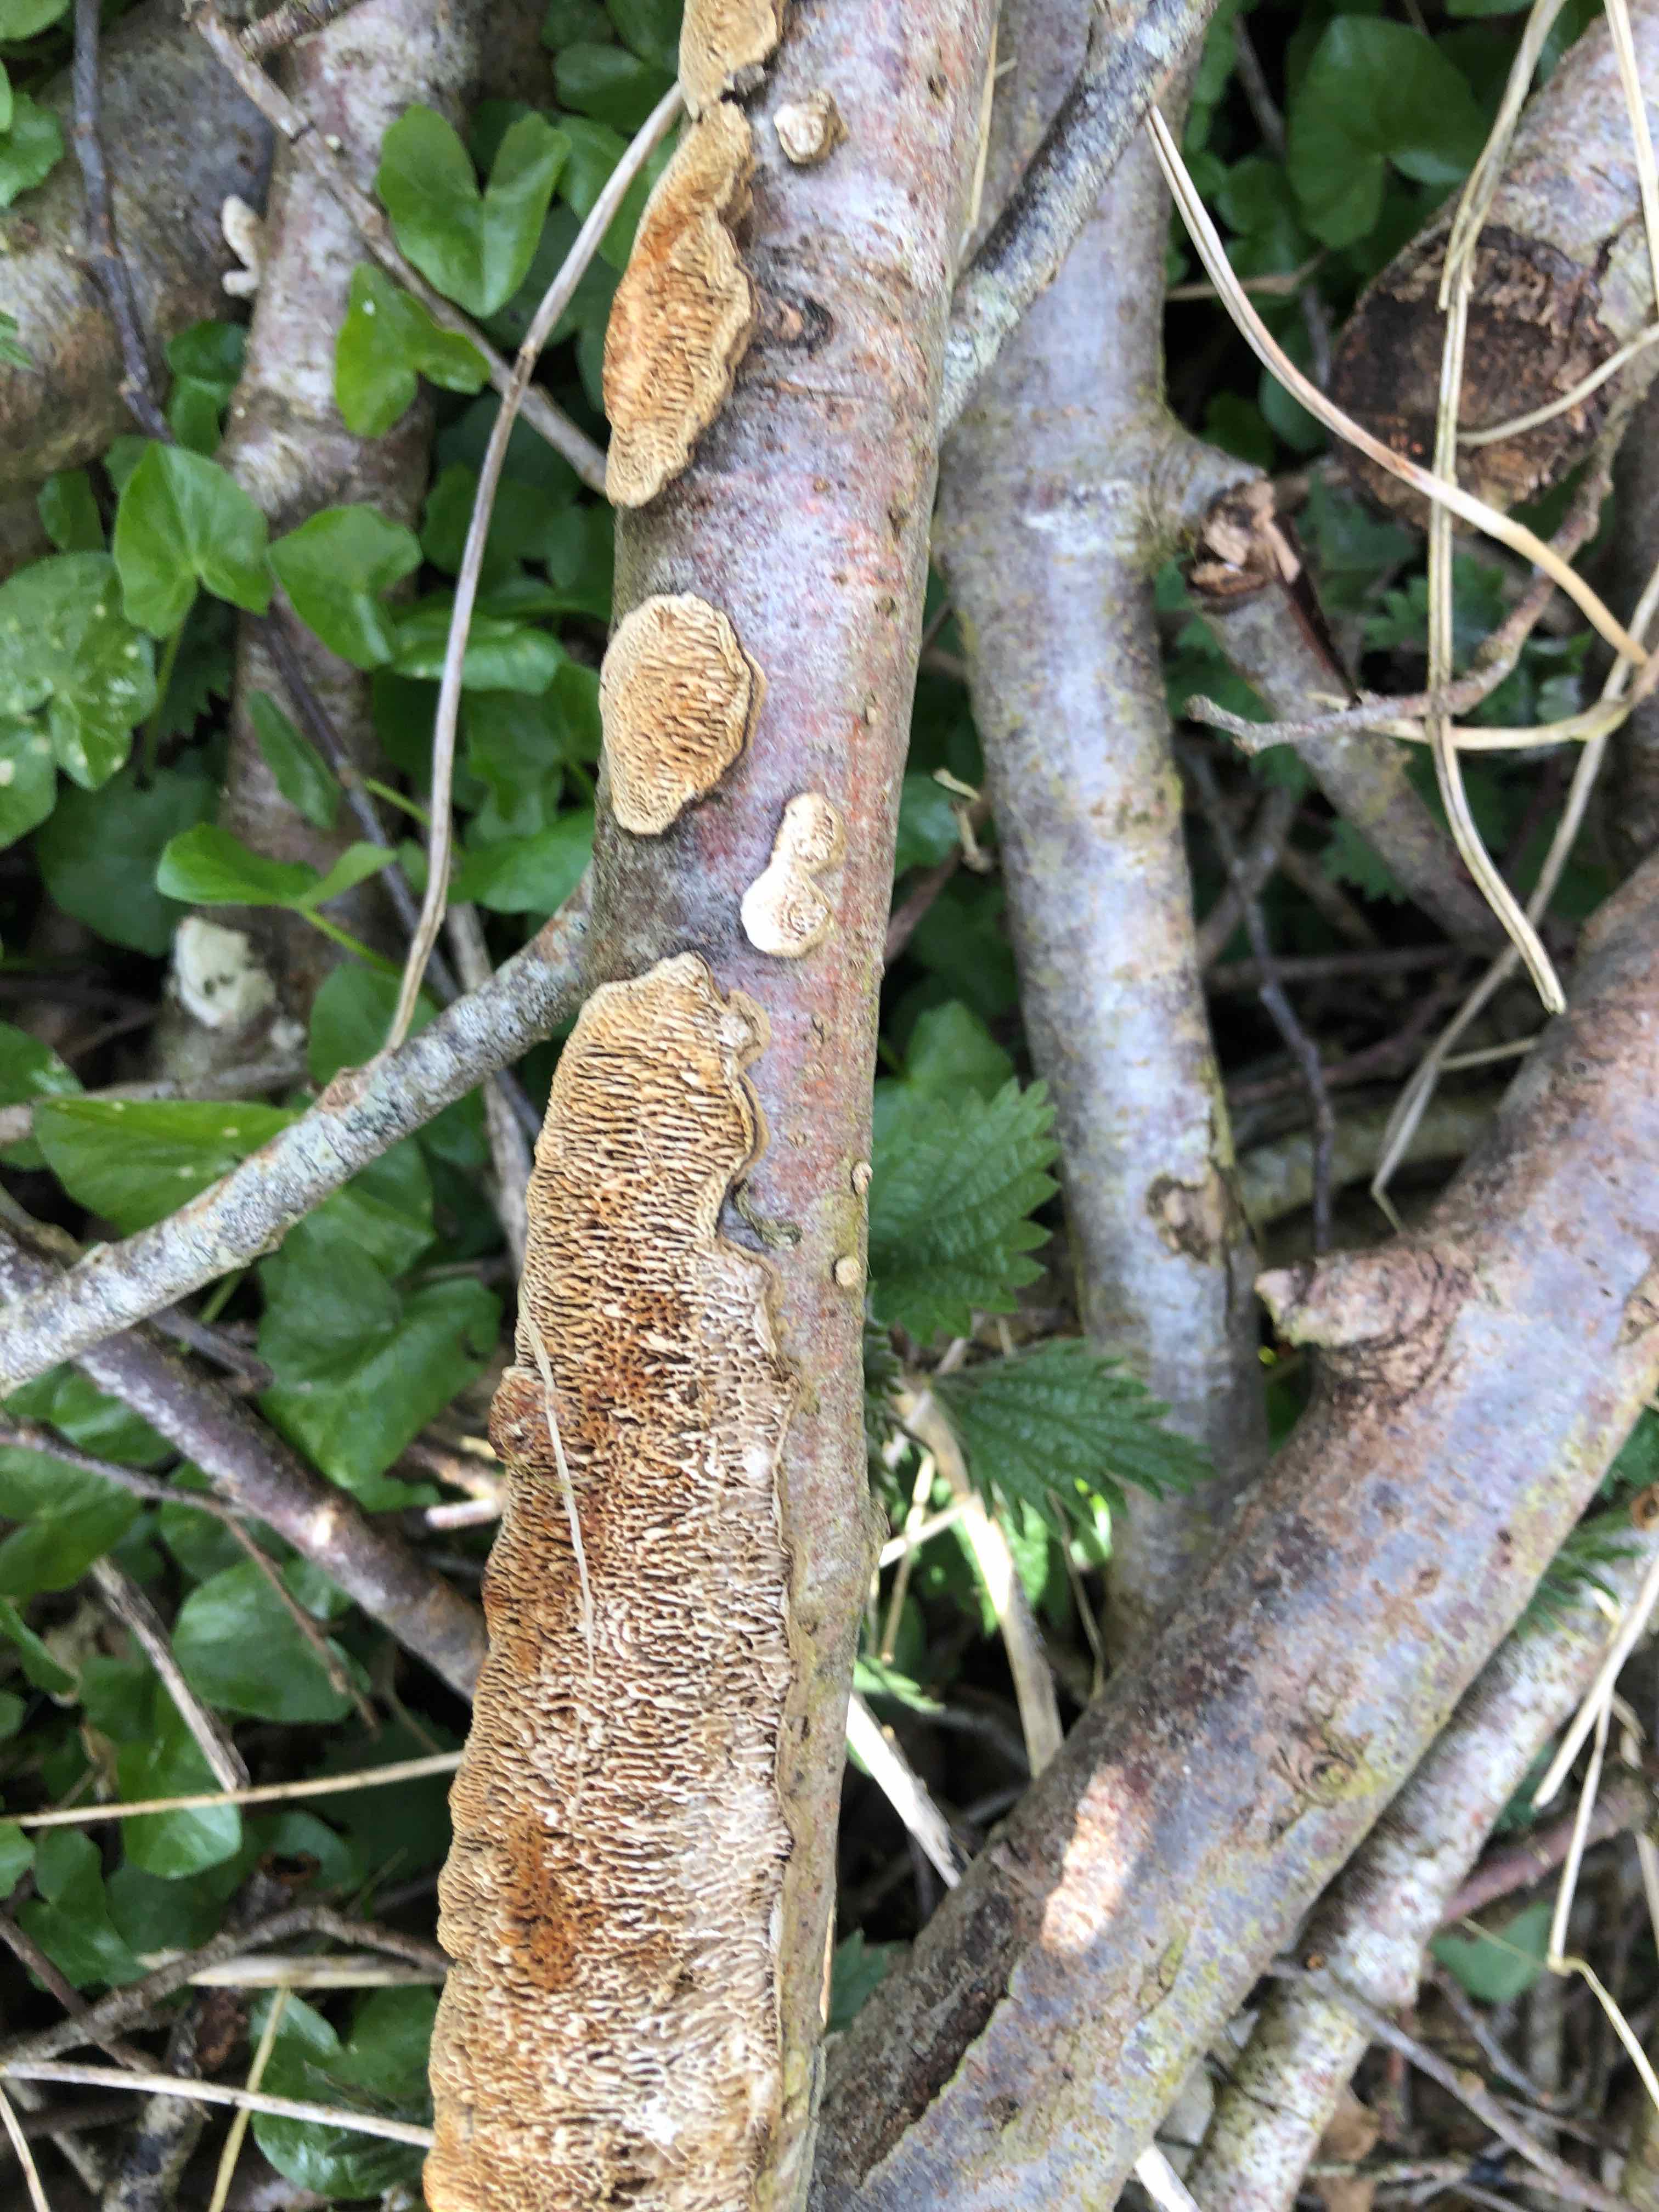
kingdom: Fungi
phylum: Basidiomycota
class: Agaricomycetes
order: Polyporales
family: Polyporaceae
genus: Podofomes
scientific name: Podofomes mollis
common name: blød begporesvamp
